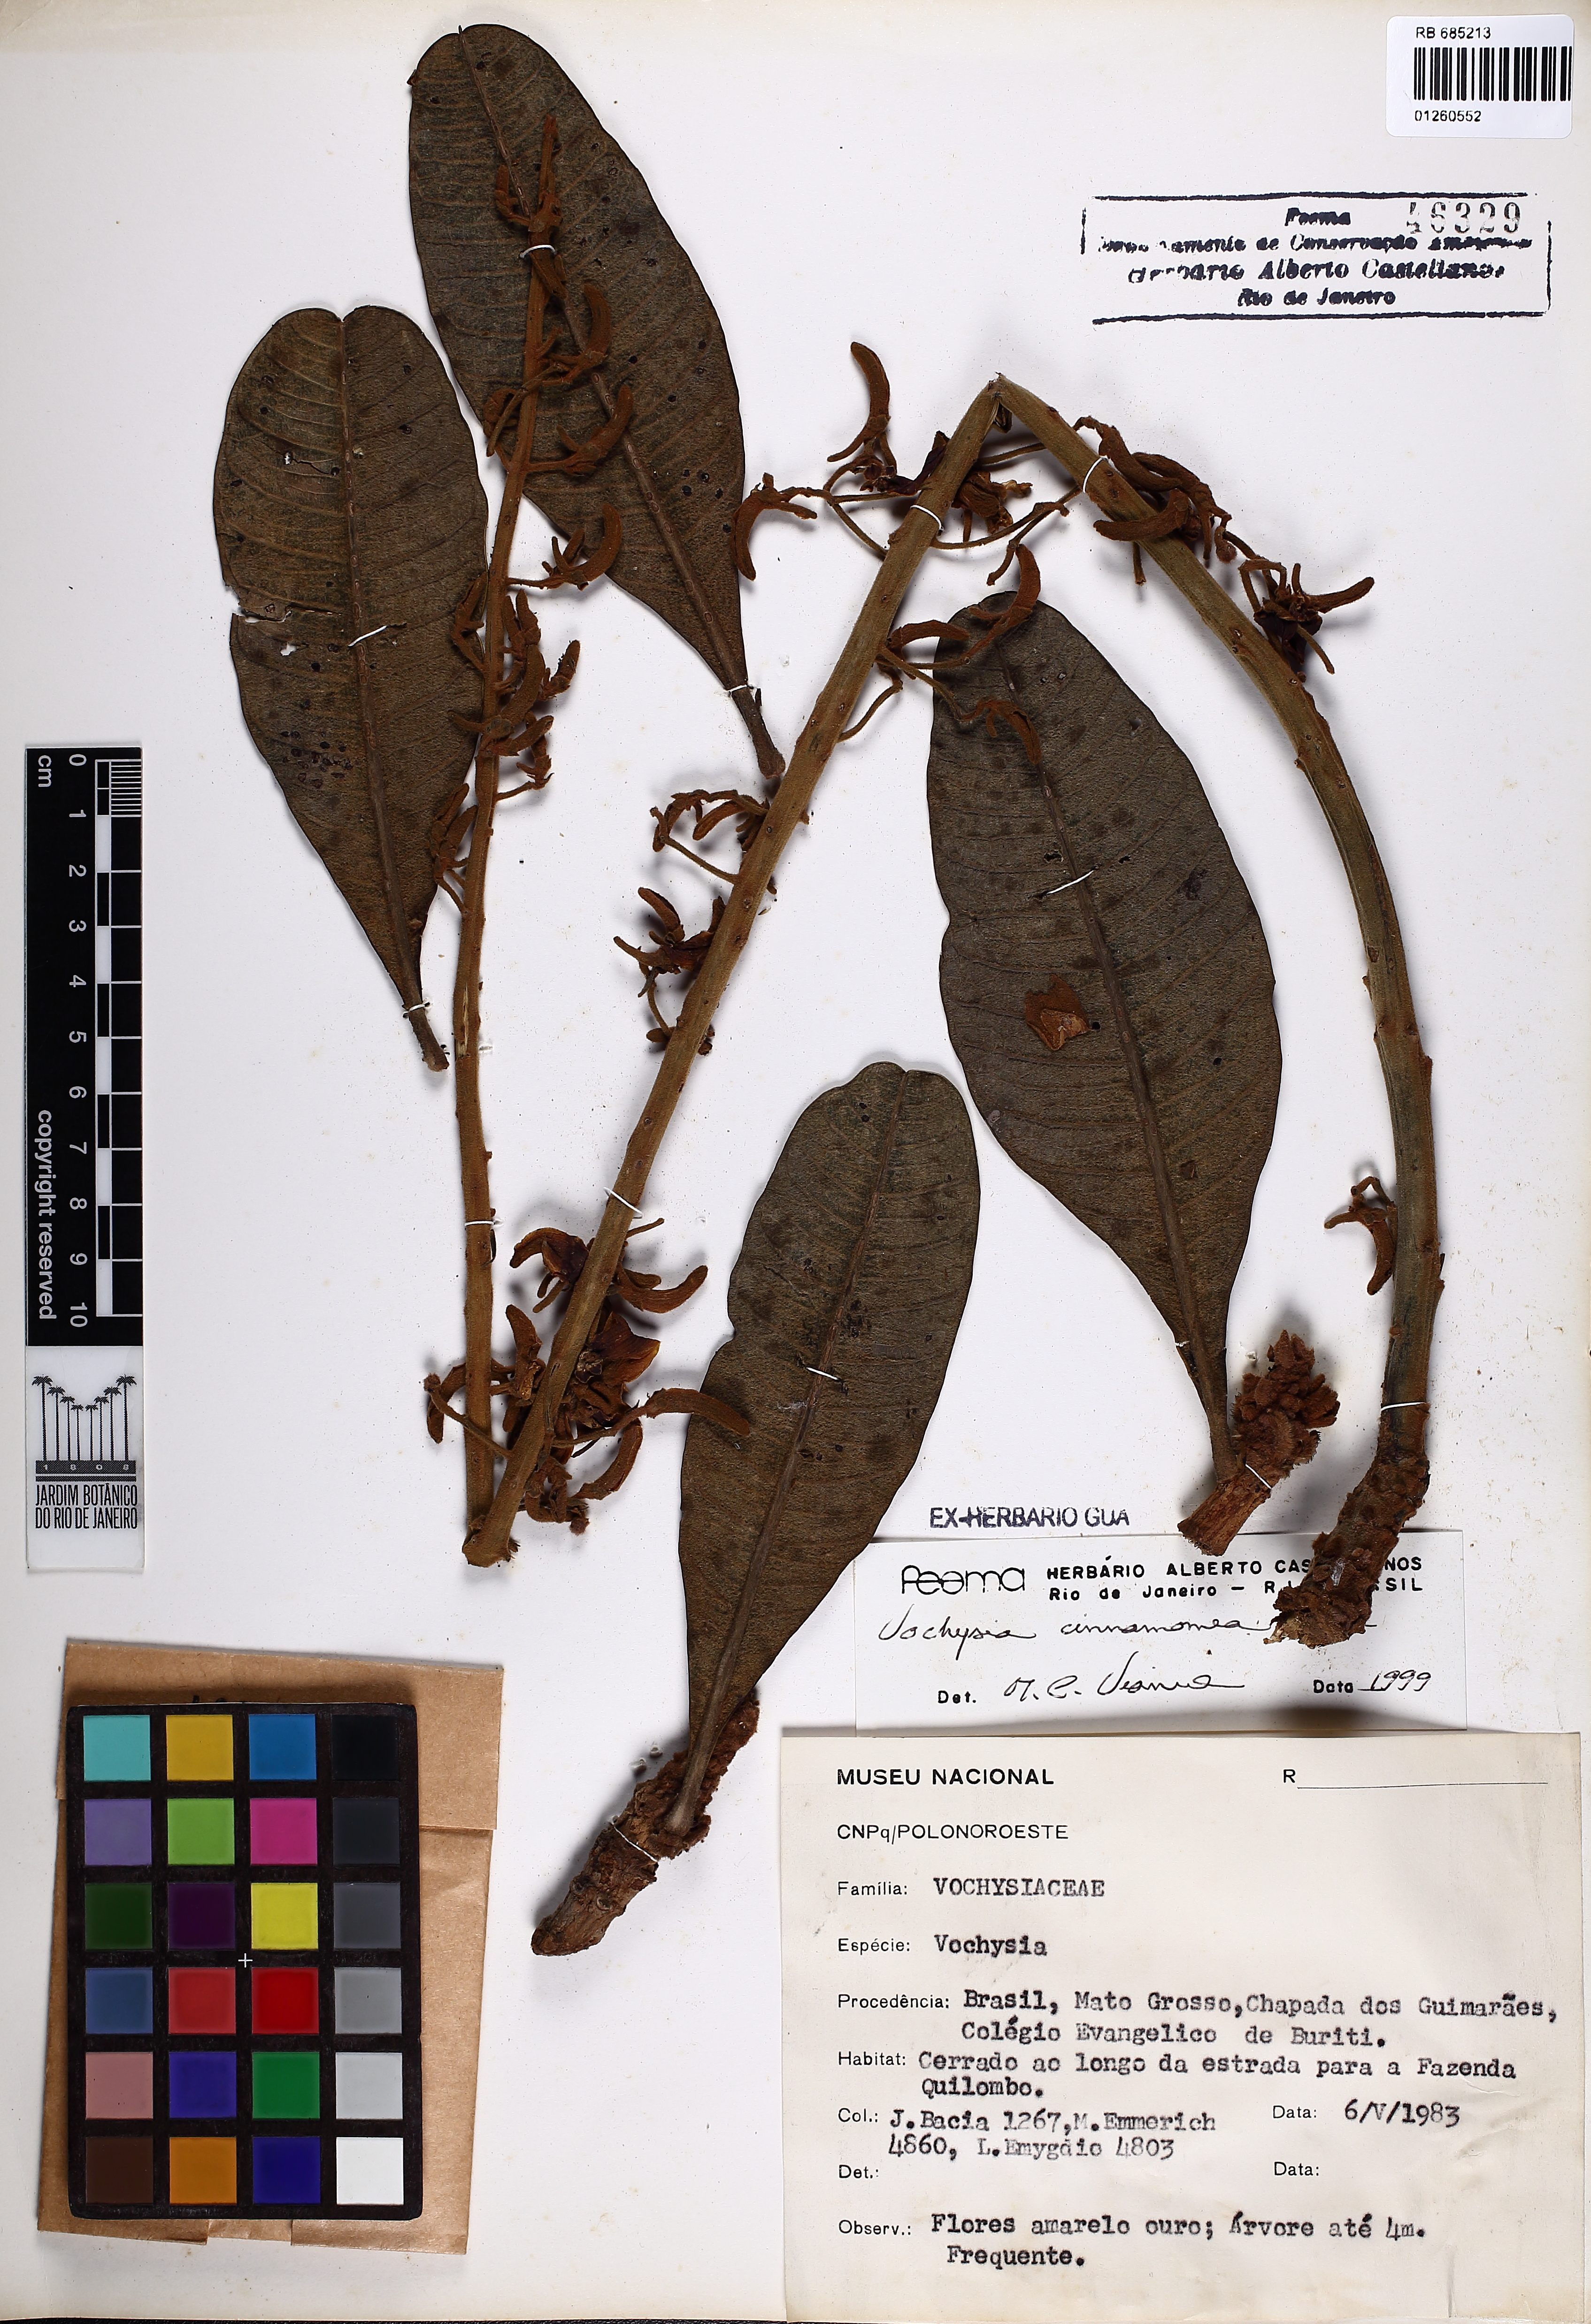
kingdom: Plantae
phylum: Tracheophyta
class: Magnoliopsida
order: Myrtales
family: Vochysiaceae
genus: Vochysia
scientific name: Vochysia cinnamomea
